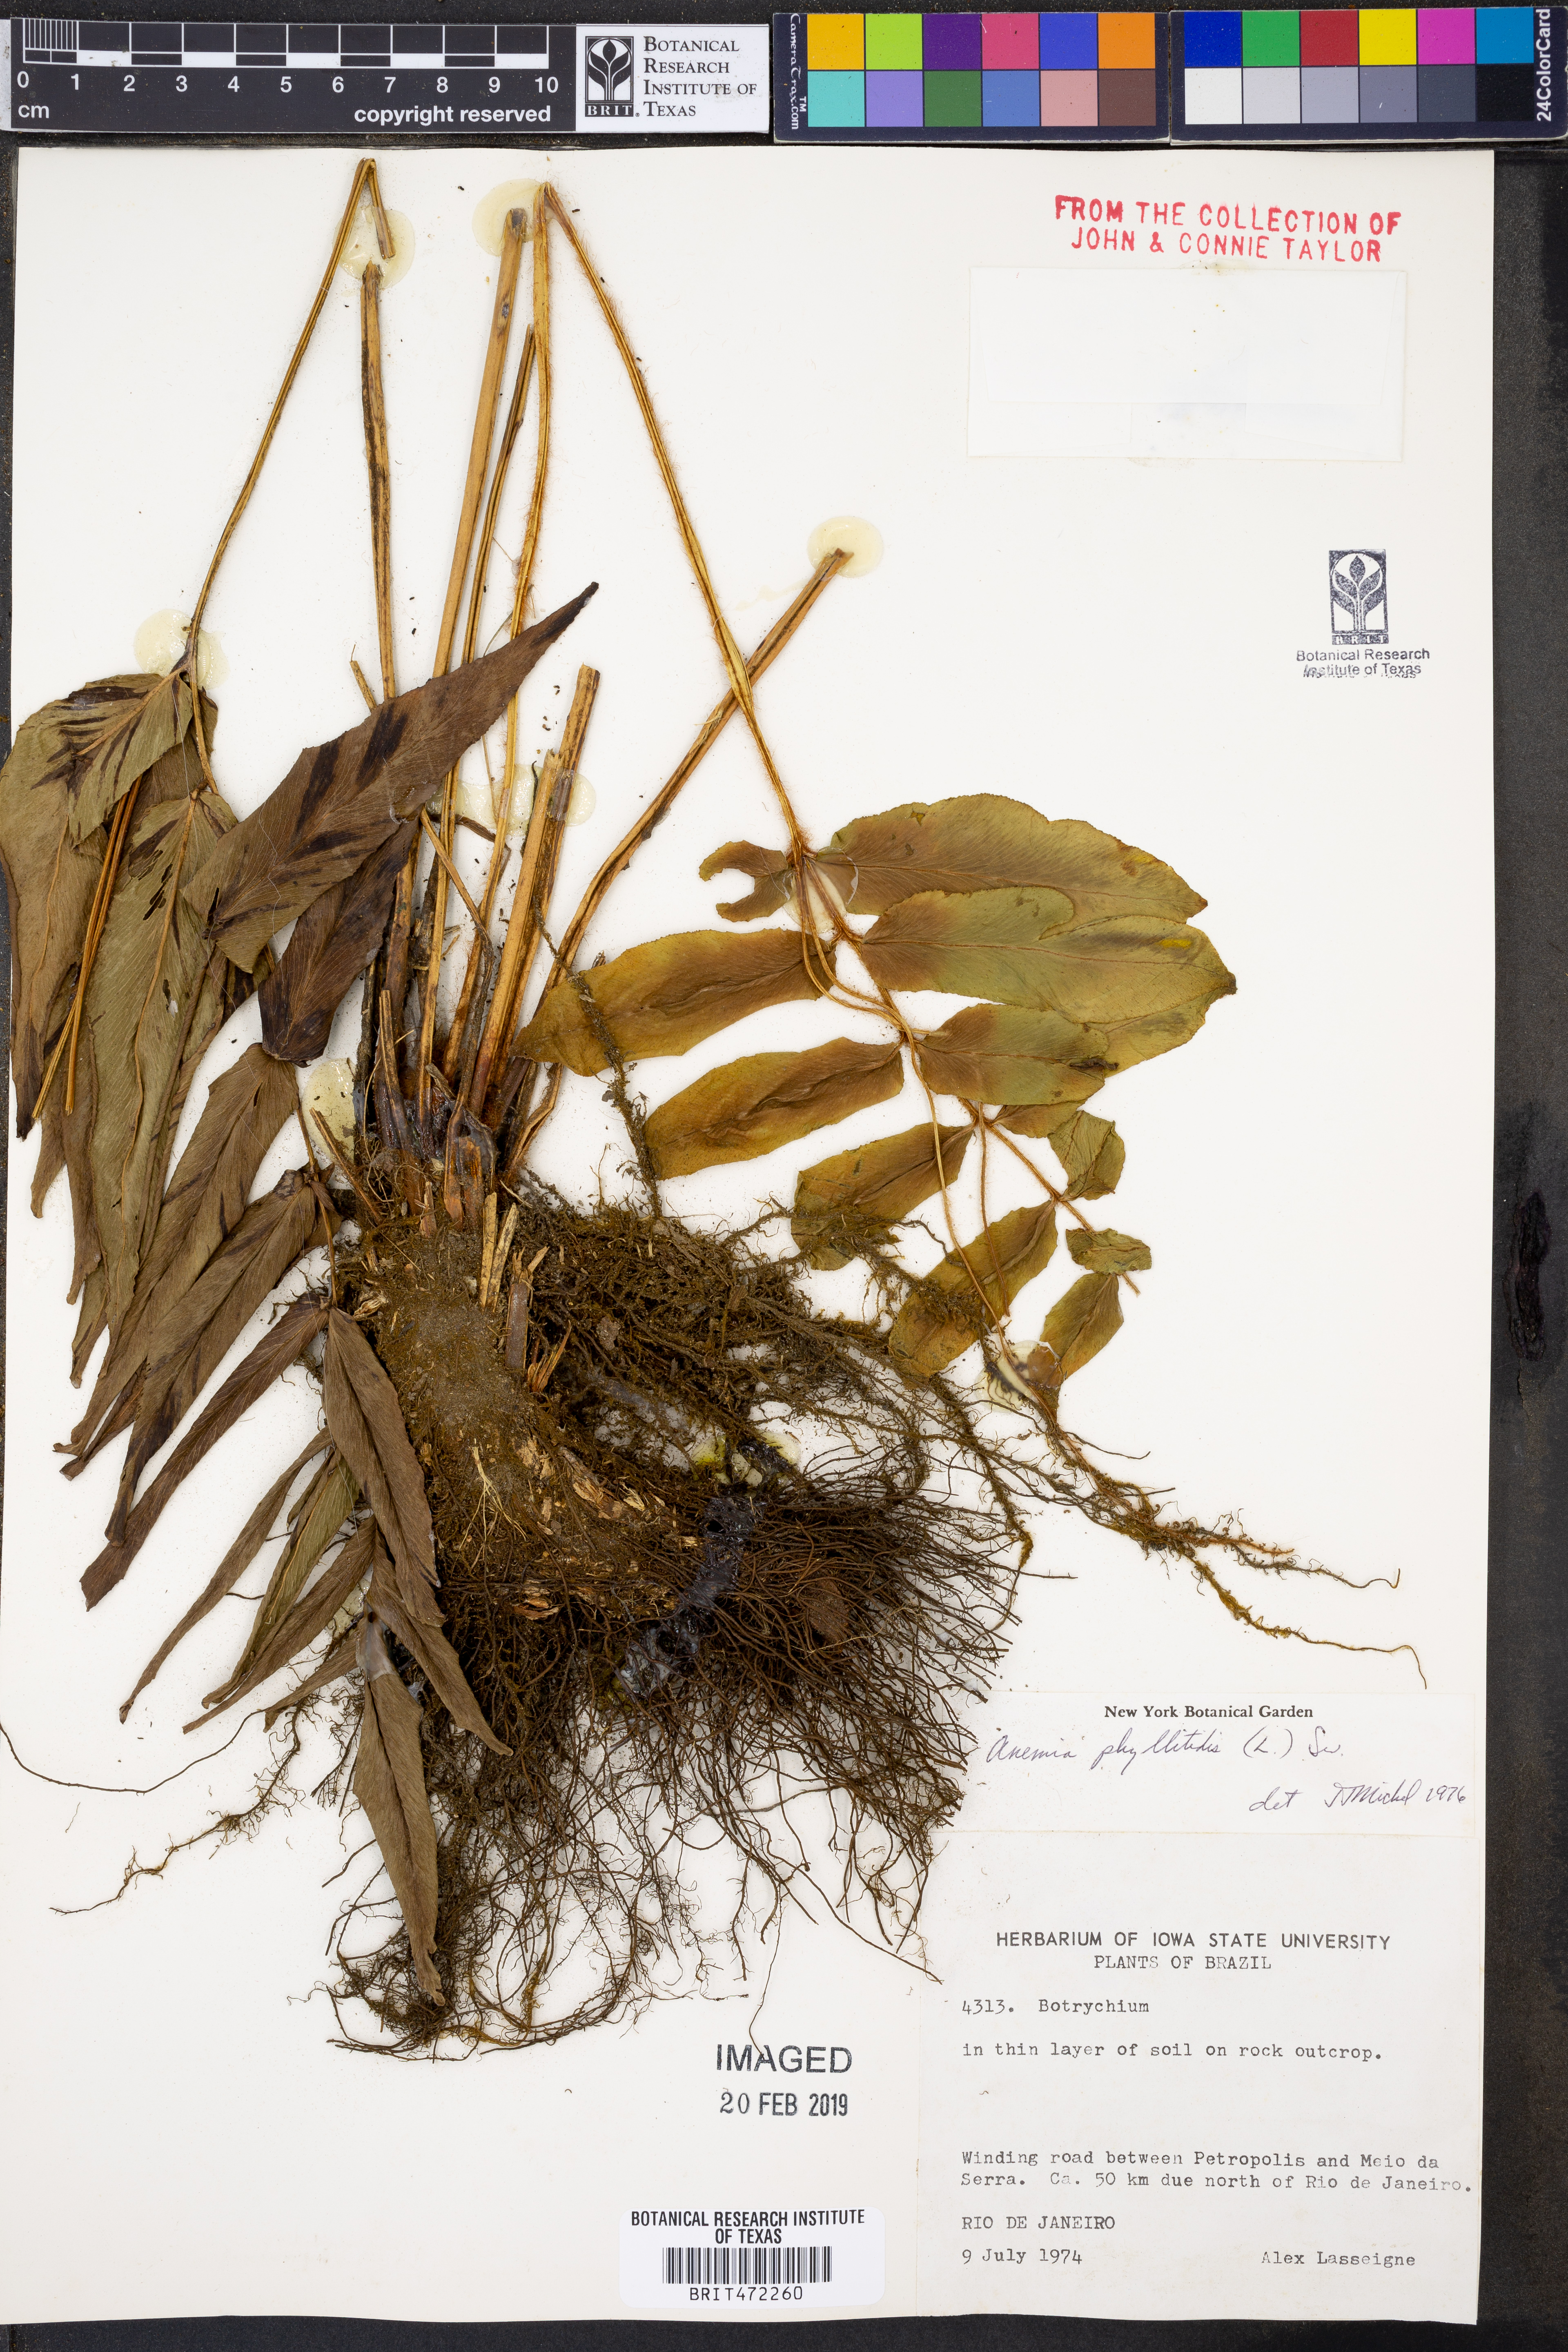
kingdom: Plantae
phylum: Tracheophyta
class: Polypodiopsida
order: Schizaeales
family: Anemiaceae
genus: Anemia
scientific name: Anemia phyllitidis
